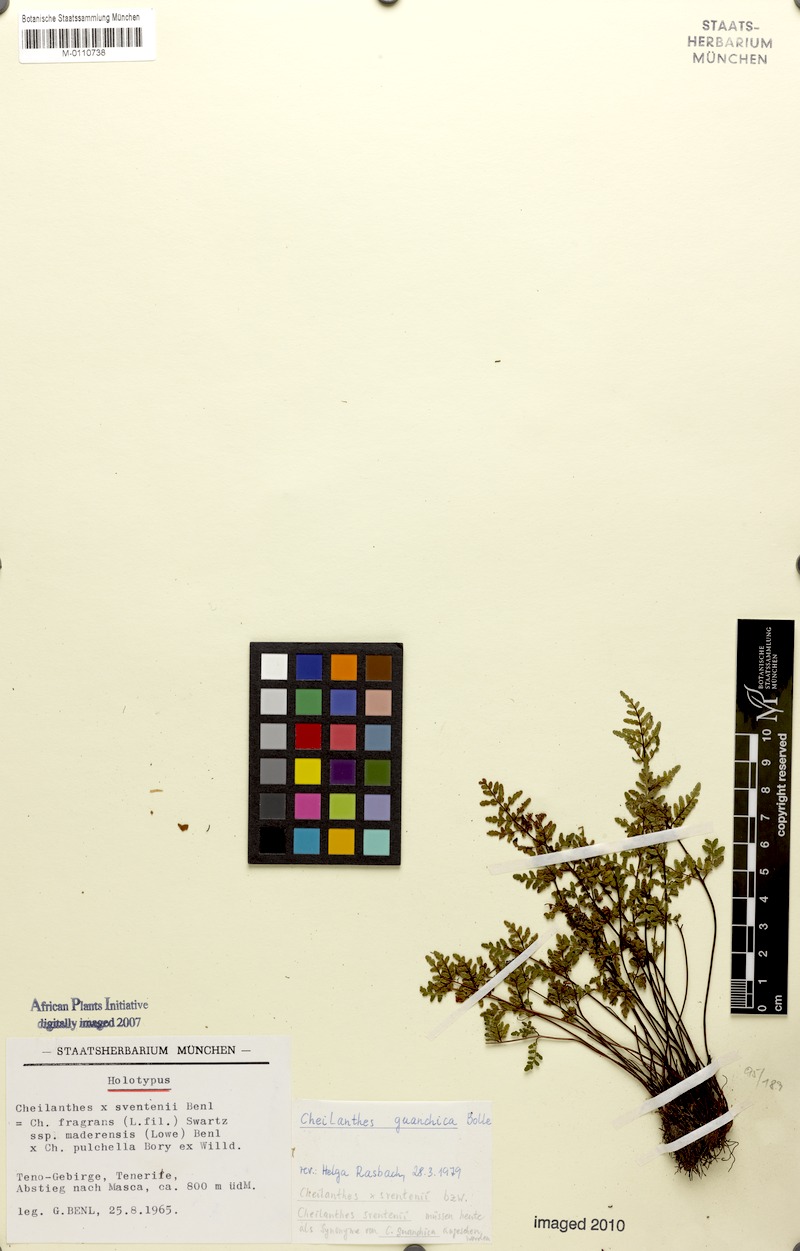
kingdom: Plantae
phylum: Tracheophyta
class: Polypodiopsida
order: Polypodiales
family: Pteridaceae
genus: Oeosporangium
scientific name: Oeosporangium guanchicum
